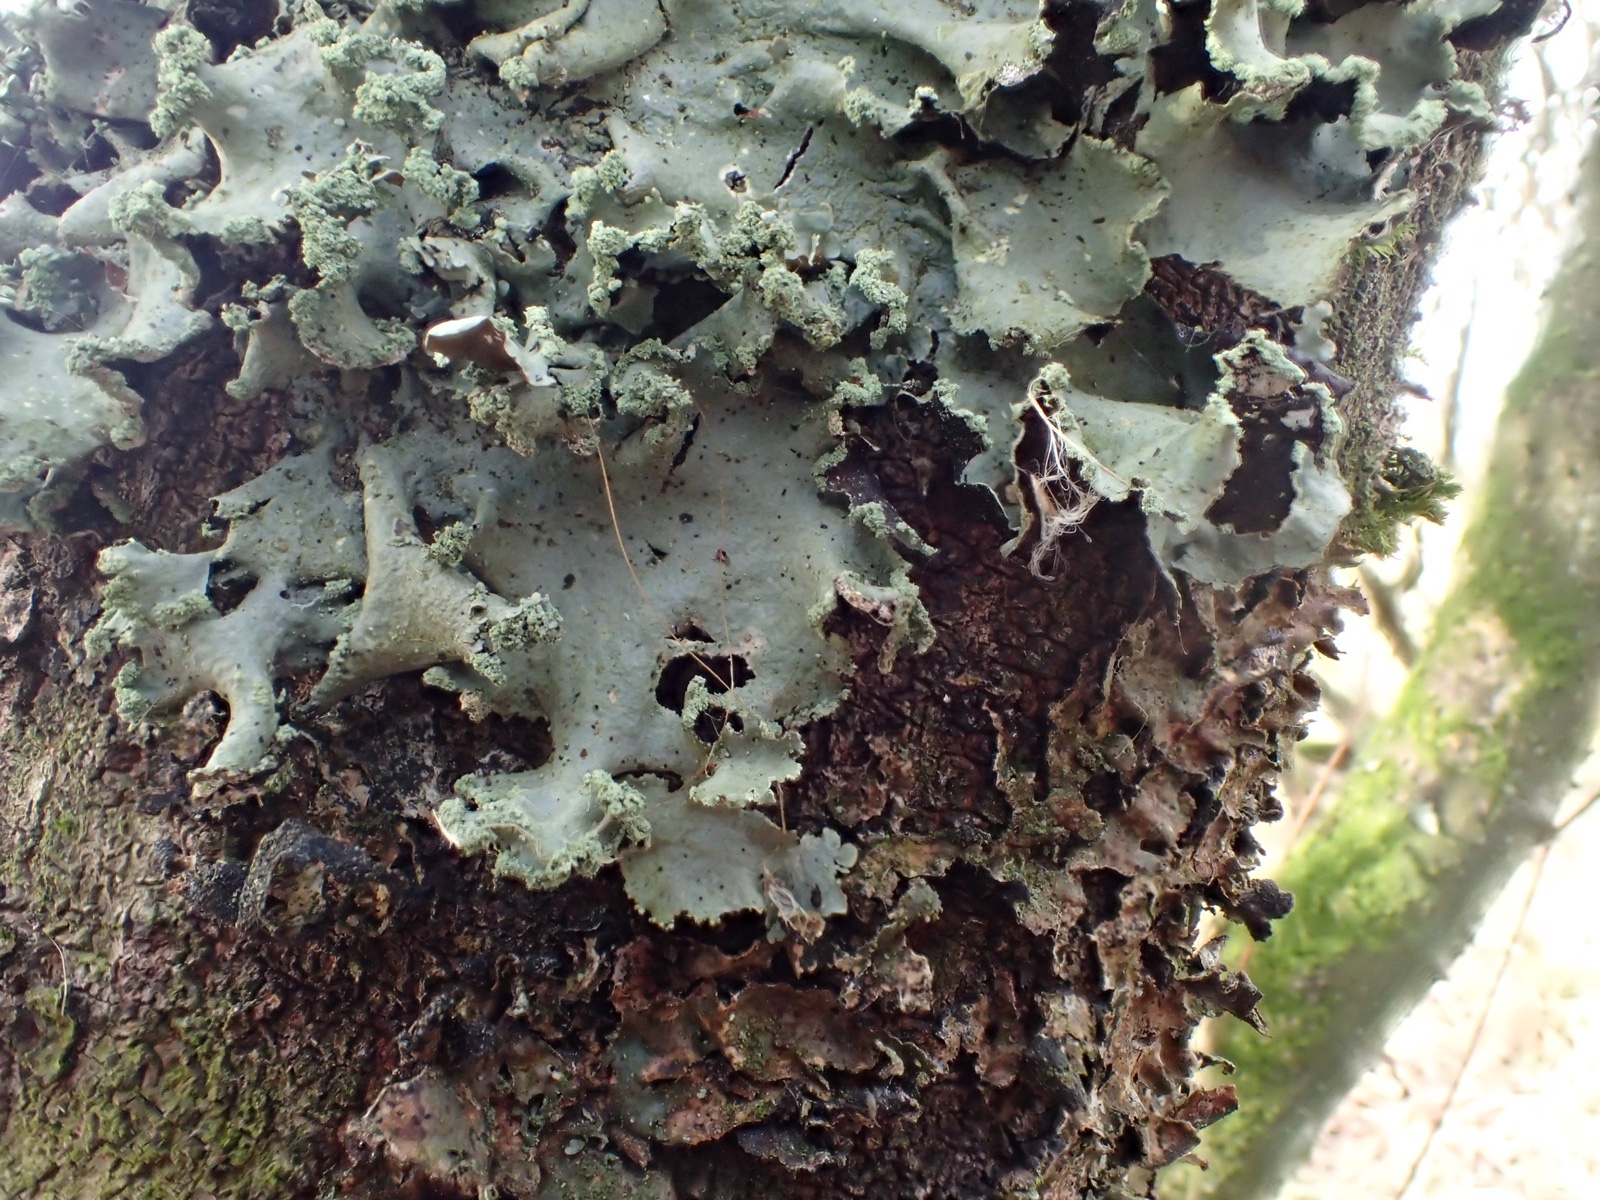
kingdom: Fungi
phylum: Ascomycota
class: Lecanoromycetes
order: Lecanorales
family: Parmeliaceae
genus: Hypotrachyna
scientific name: Hypotrachyna revoluta
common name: bleggrå skållav
